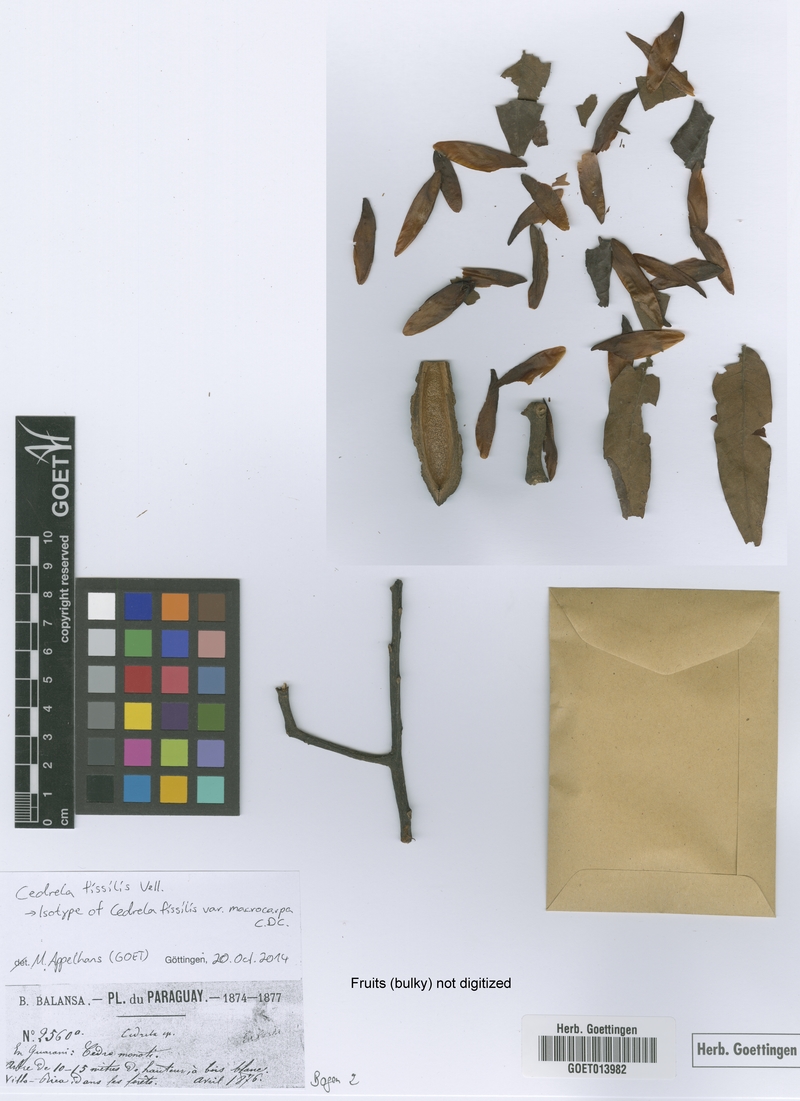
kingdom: Plantae
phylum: Tracheophyta
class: Magnoliopsida
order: Sapindales
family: Meliaceae
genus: Cedrela
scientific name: Cedrela fissilis
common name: Argentine cedar
